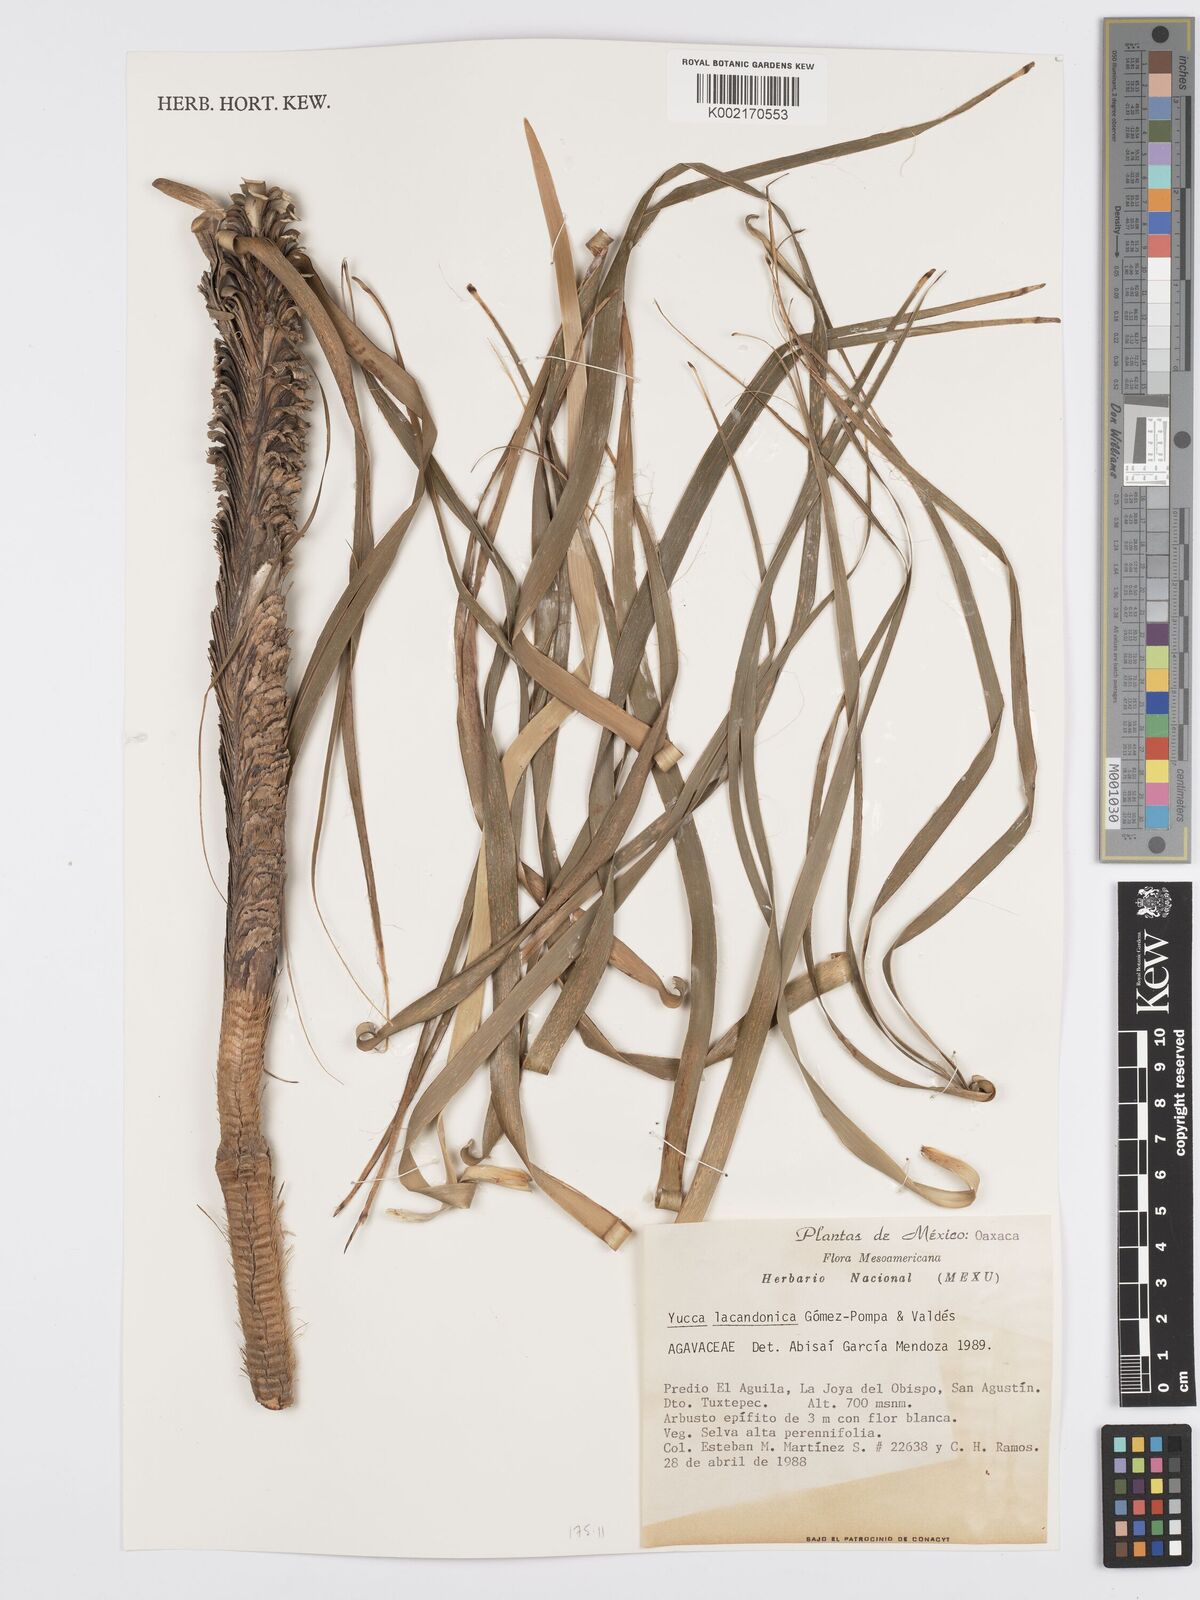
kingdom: Plantae
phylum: Tracheophyta
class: Liliopsida
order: Asparagales
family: Asparagaceae
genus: Yucca
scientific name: Yucca lacandonica
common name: Quim
